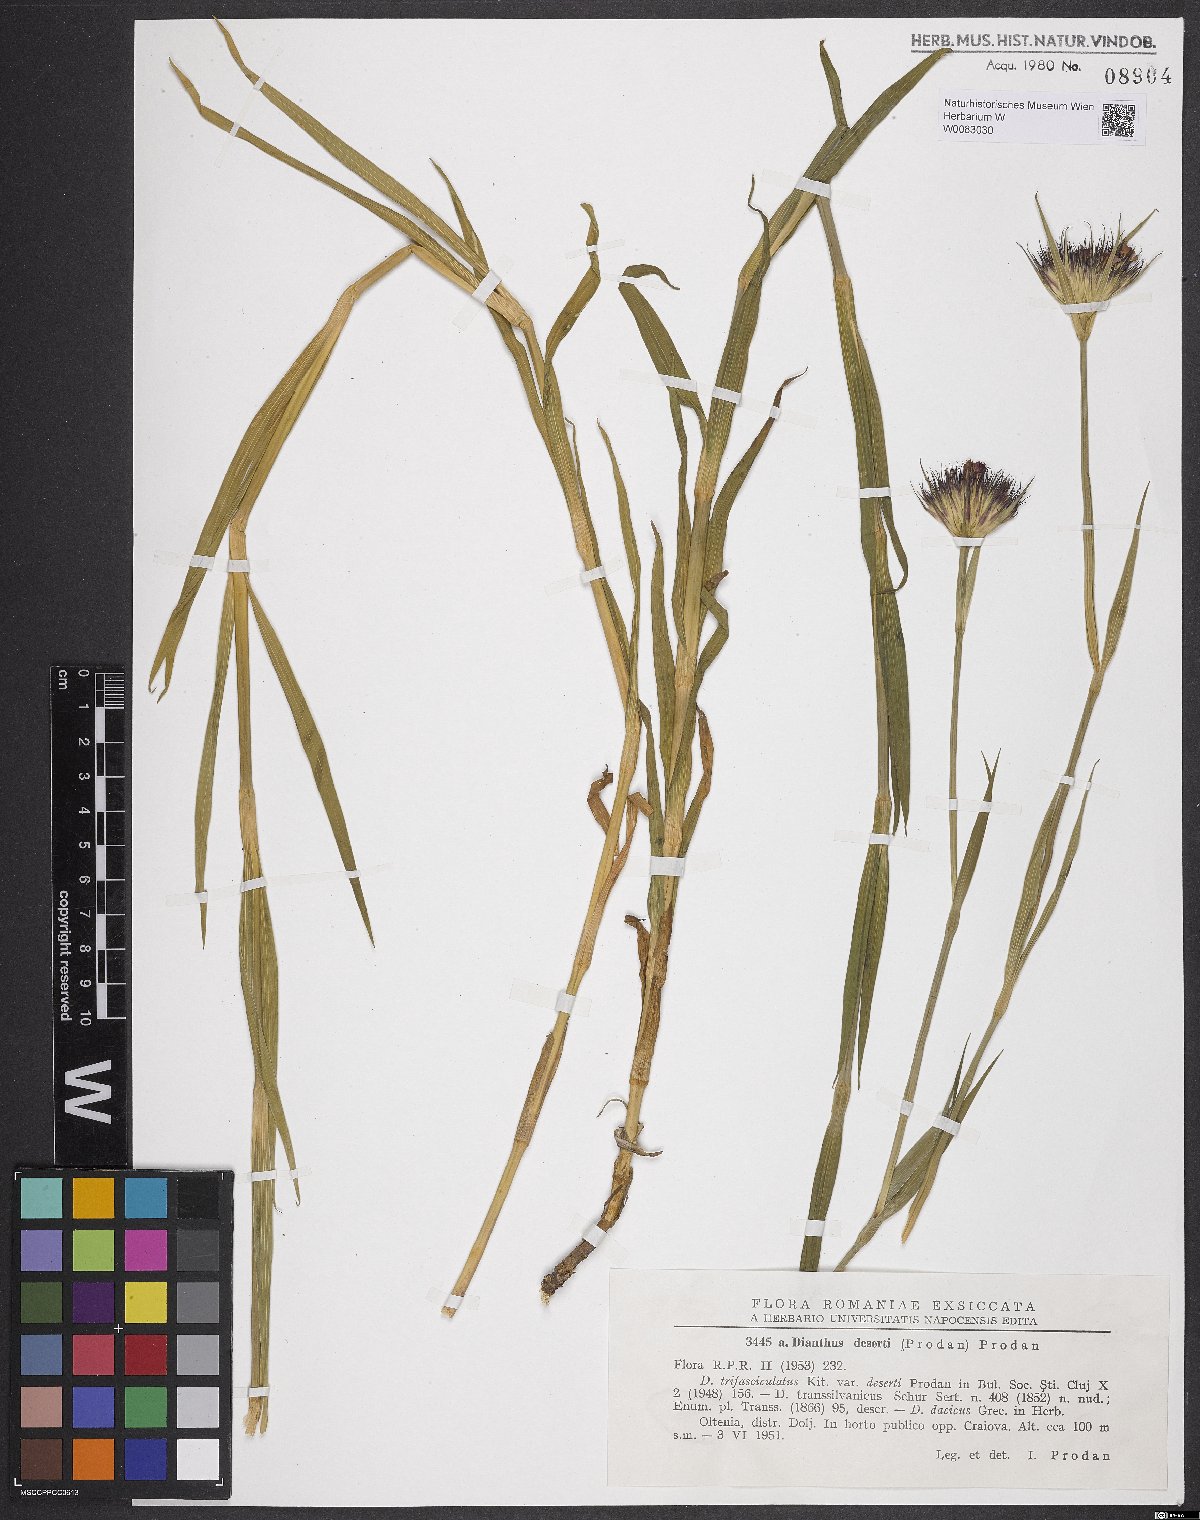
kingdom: Plantae
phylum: Tracheophyta
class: Magnoliopsida
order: Caryophyllales
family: Caryophyllaceae
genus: Dianthus
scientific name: Dianthus trifasciculatus
